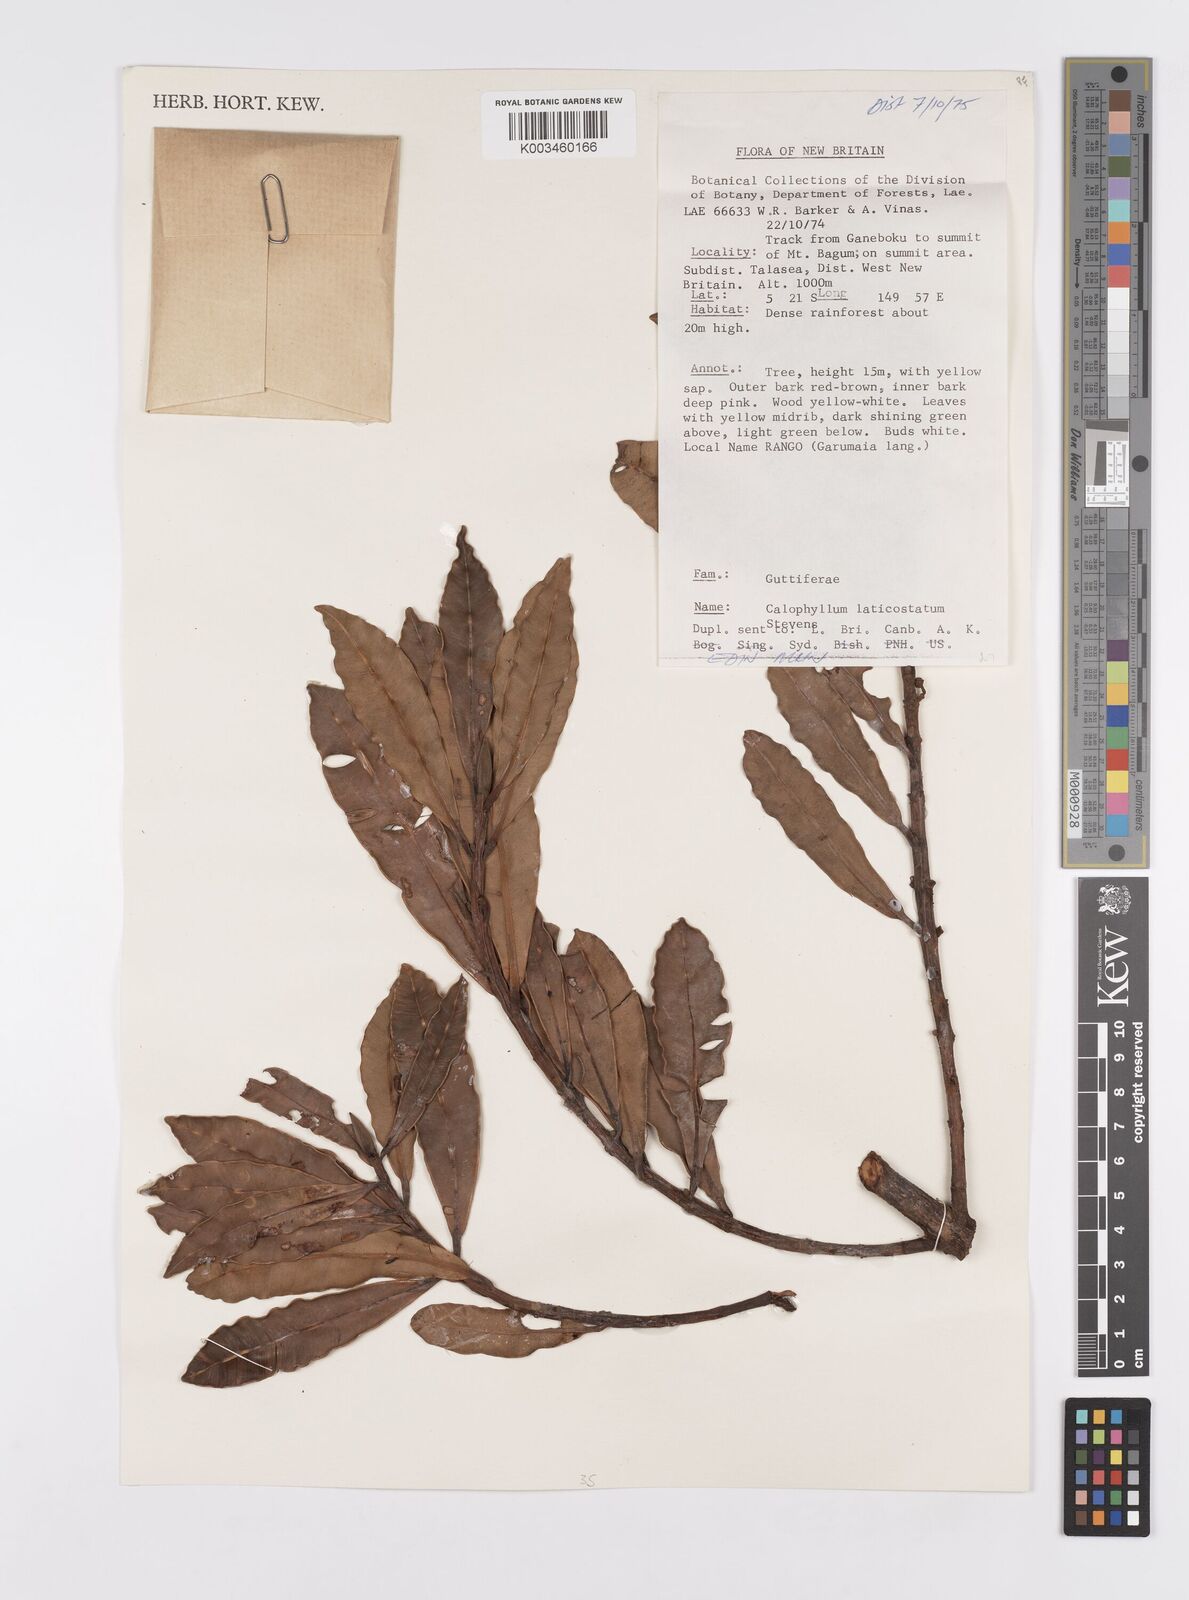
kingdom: Plantae
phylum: Tracheophyta
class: Magnoliopsida
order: Malpighiales
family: Calophyllaceae
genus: Calophyllum
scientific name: Calophyllum laticostatum
